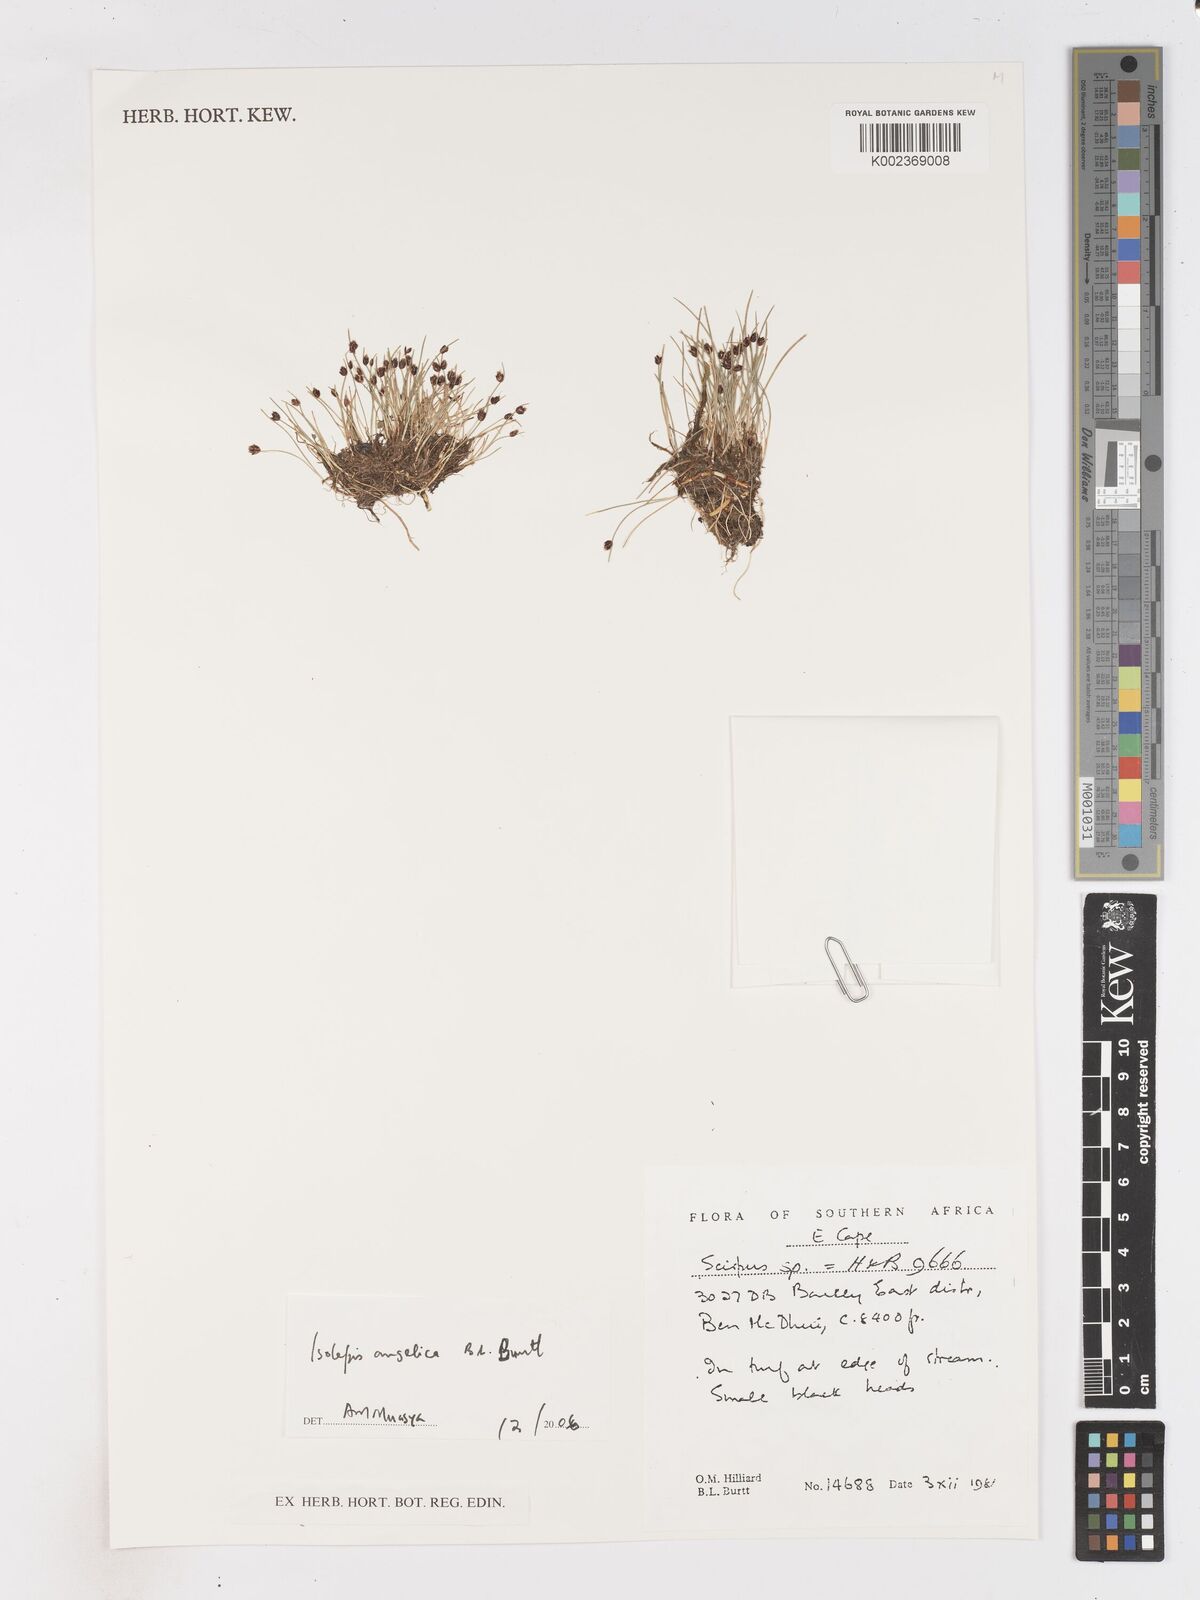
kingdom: Plantae
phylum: Tracheophyta
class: Liliopsida
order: Poales
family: Cyperaceae
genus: Isolepis
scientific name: Isolepis angelica
